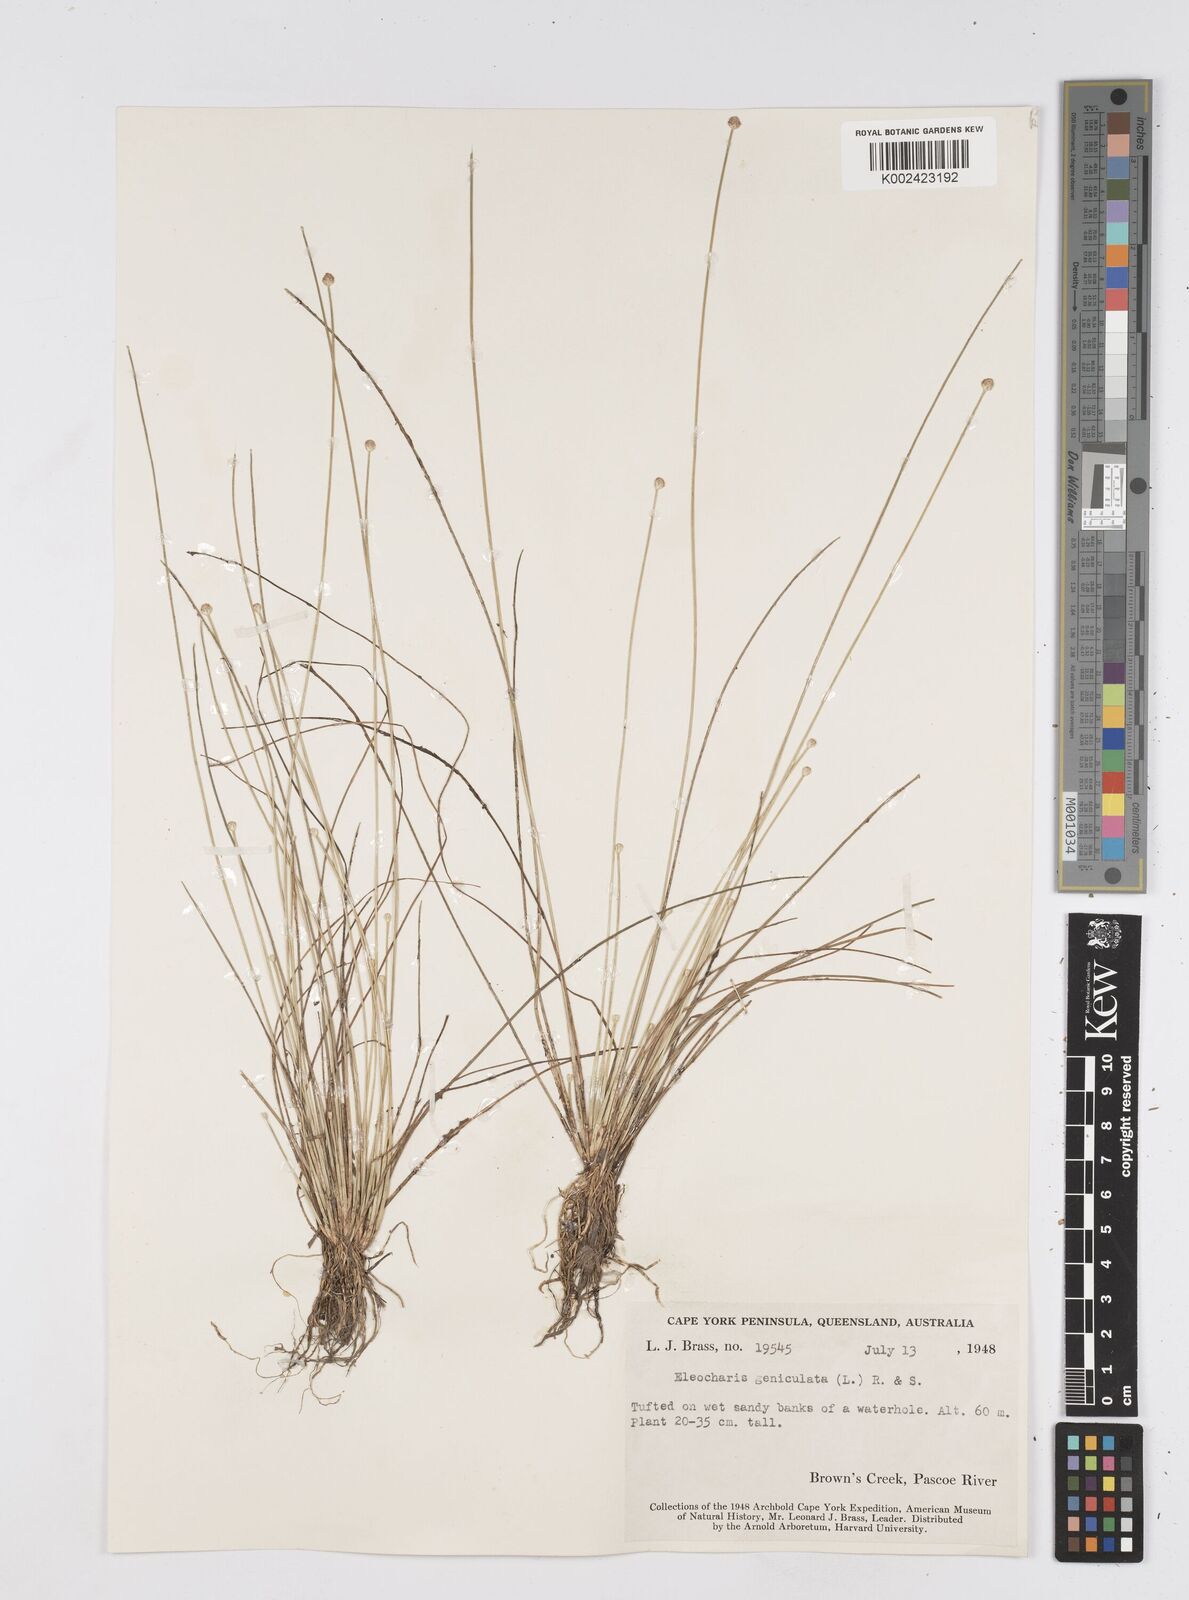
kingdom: Plantae
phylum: Tracheophyta
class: Liliopsida
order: Poales
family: Cyperaceae
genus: Eleocharis
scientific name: Eleocharis geniculata
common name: Canada spikesedge
